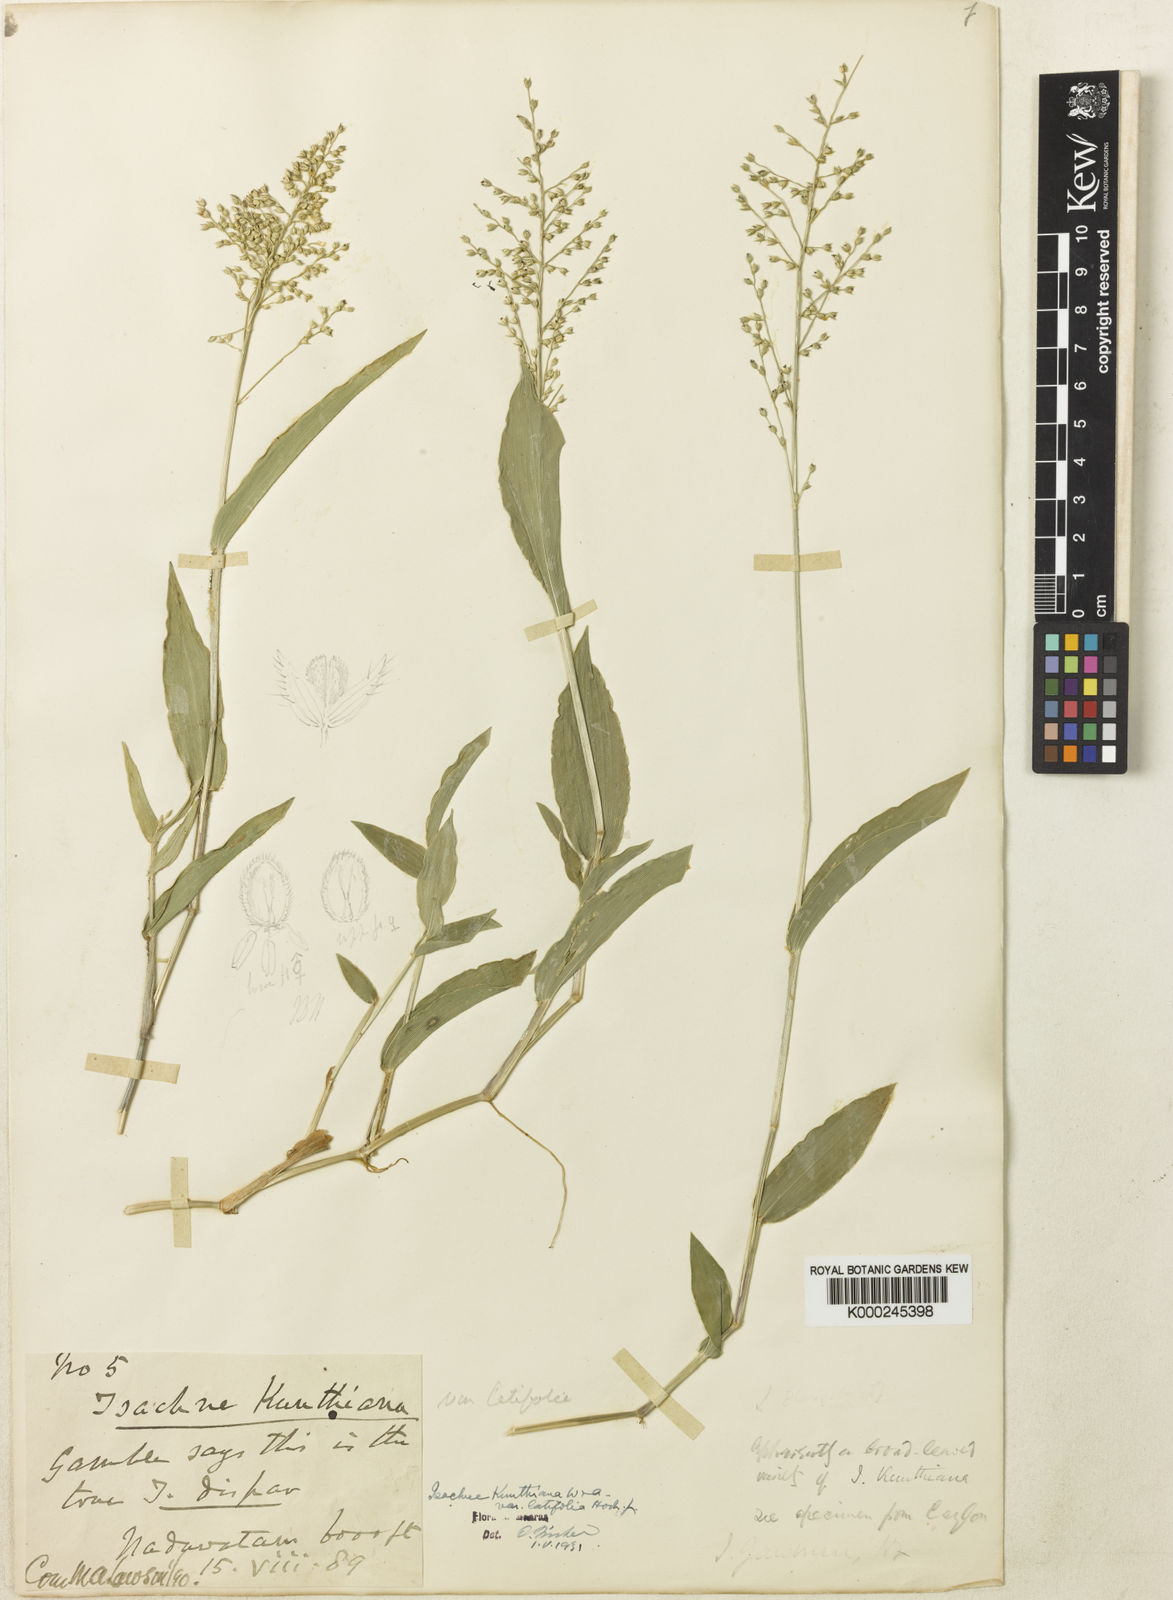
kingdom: Plantae
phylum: Tracheophyta
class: Liliopsida
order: Poales
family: Poaceae
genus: Isachne
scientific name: Isachne kunthiana
